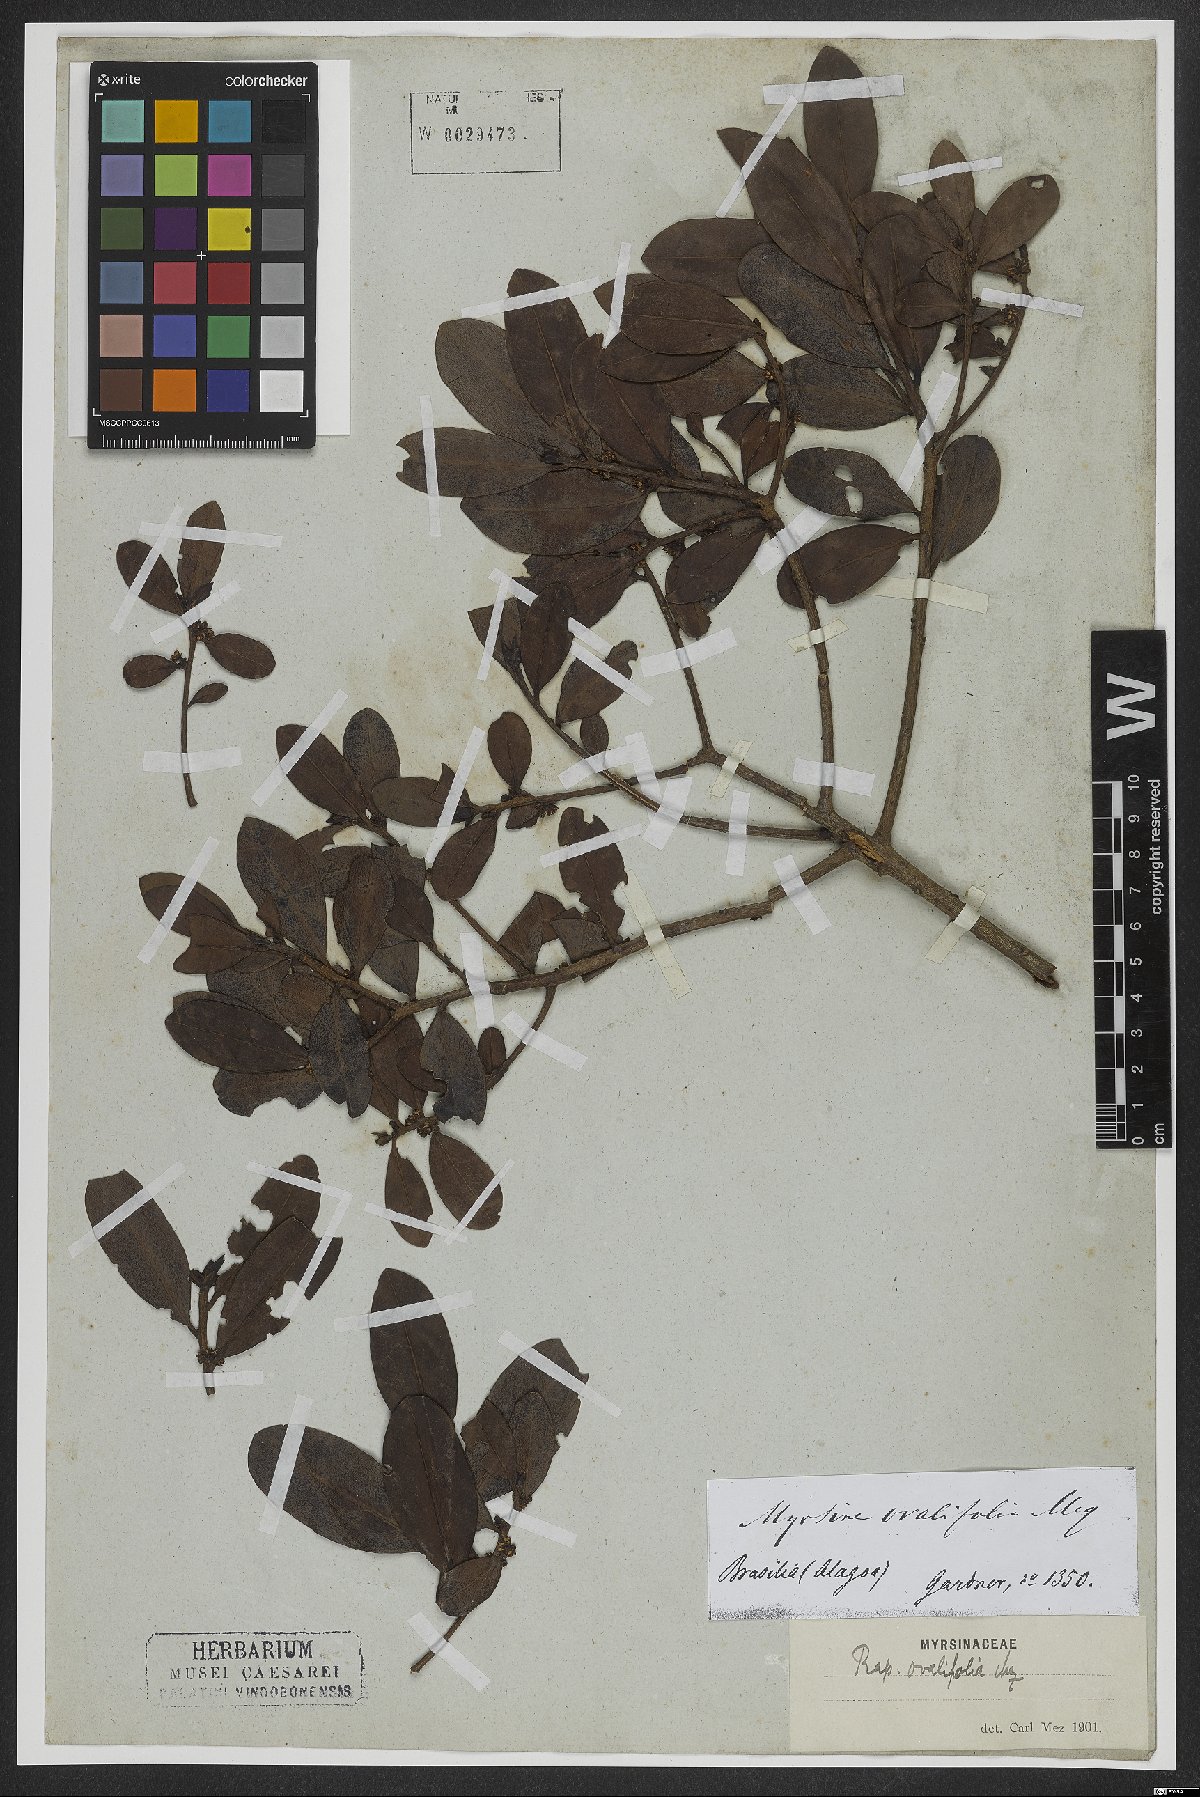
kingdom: Plantae
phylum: Tracheophyta
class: Magnoliopsida
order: Ericales
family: Primulaceae
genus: Myrsine
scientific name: Myrsine miquelii
